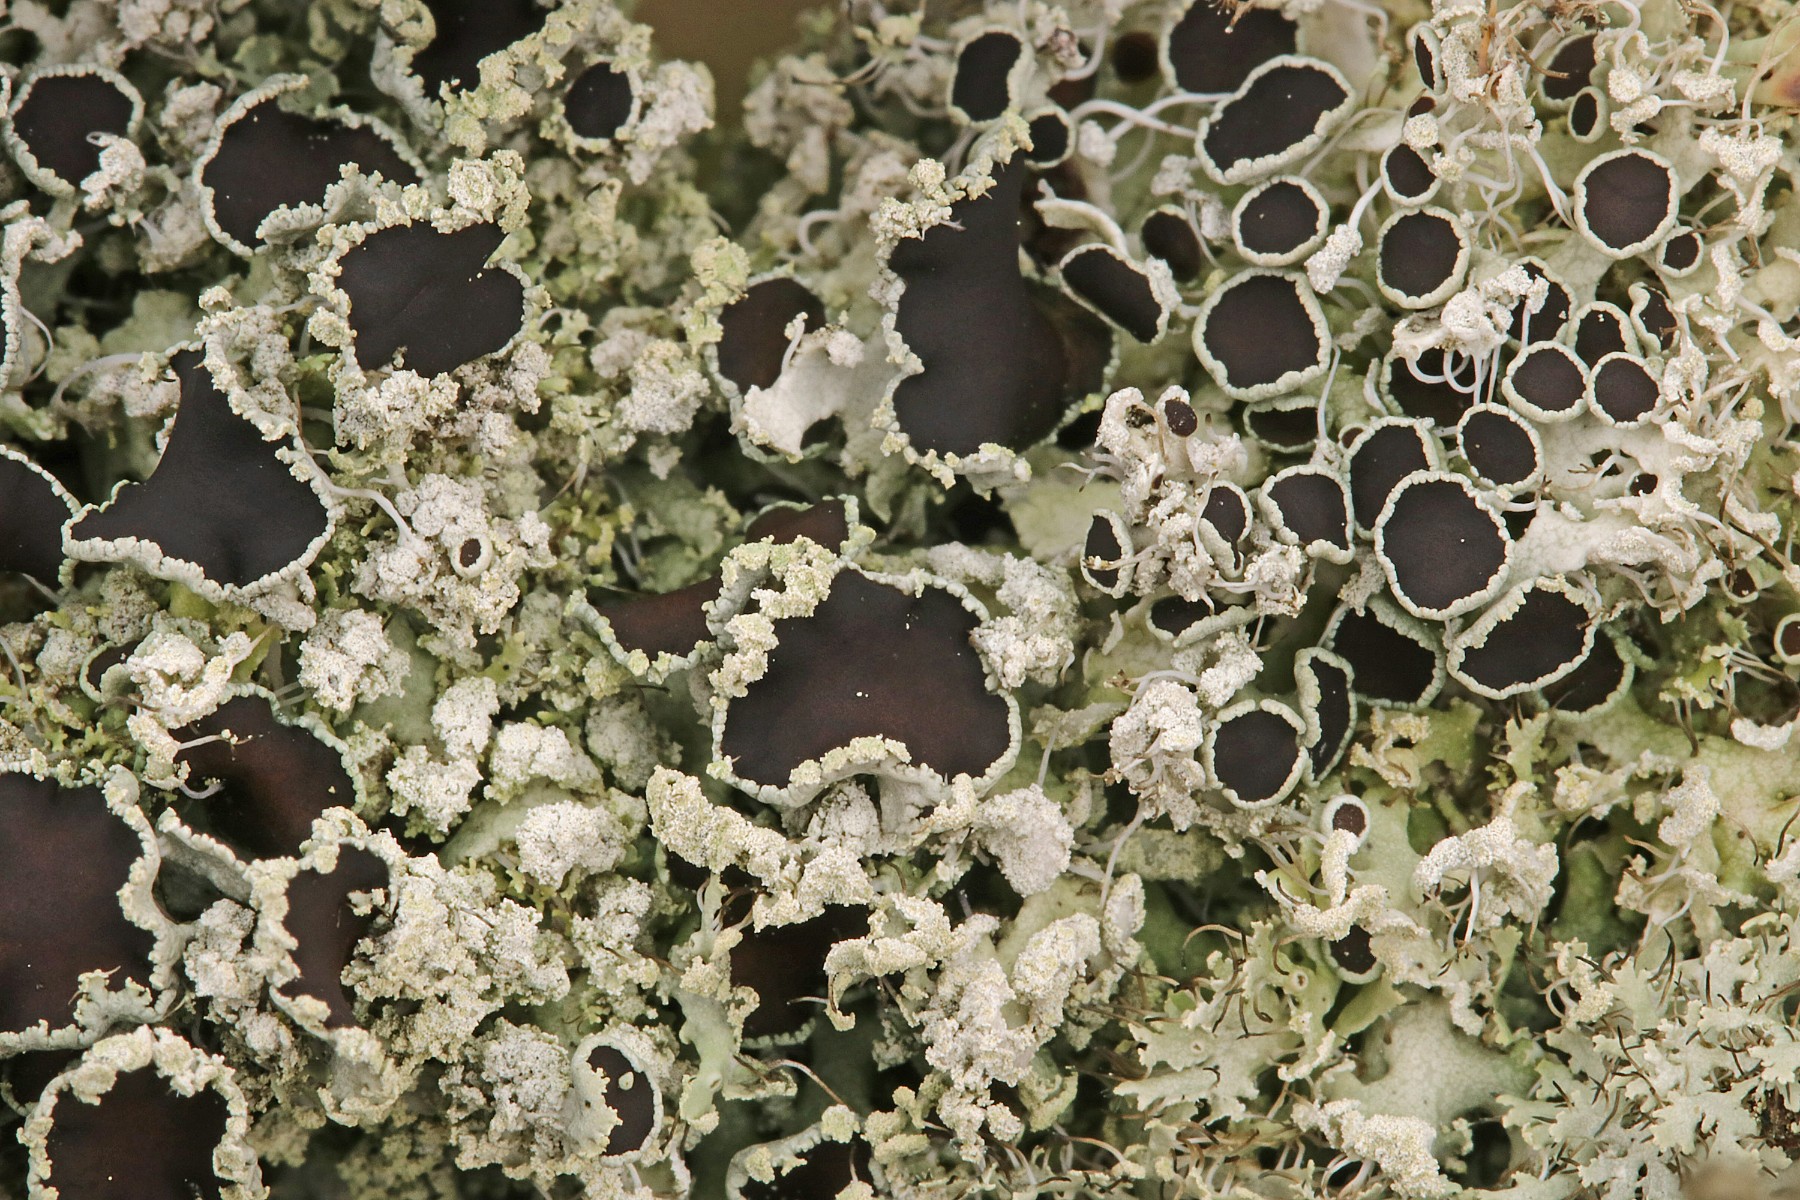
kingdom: Fungi
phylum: Ascomycota
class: Lecanoromycetes
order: Caliciales
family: Physciaceae
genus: Physcia
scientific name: Physcia tenella
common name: spæd rosetlav
